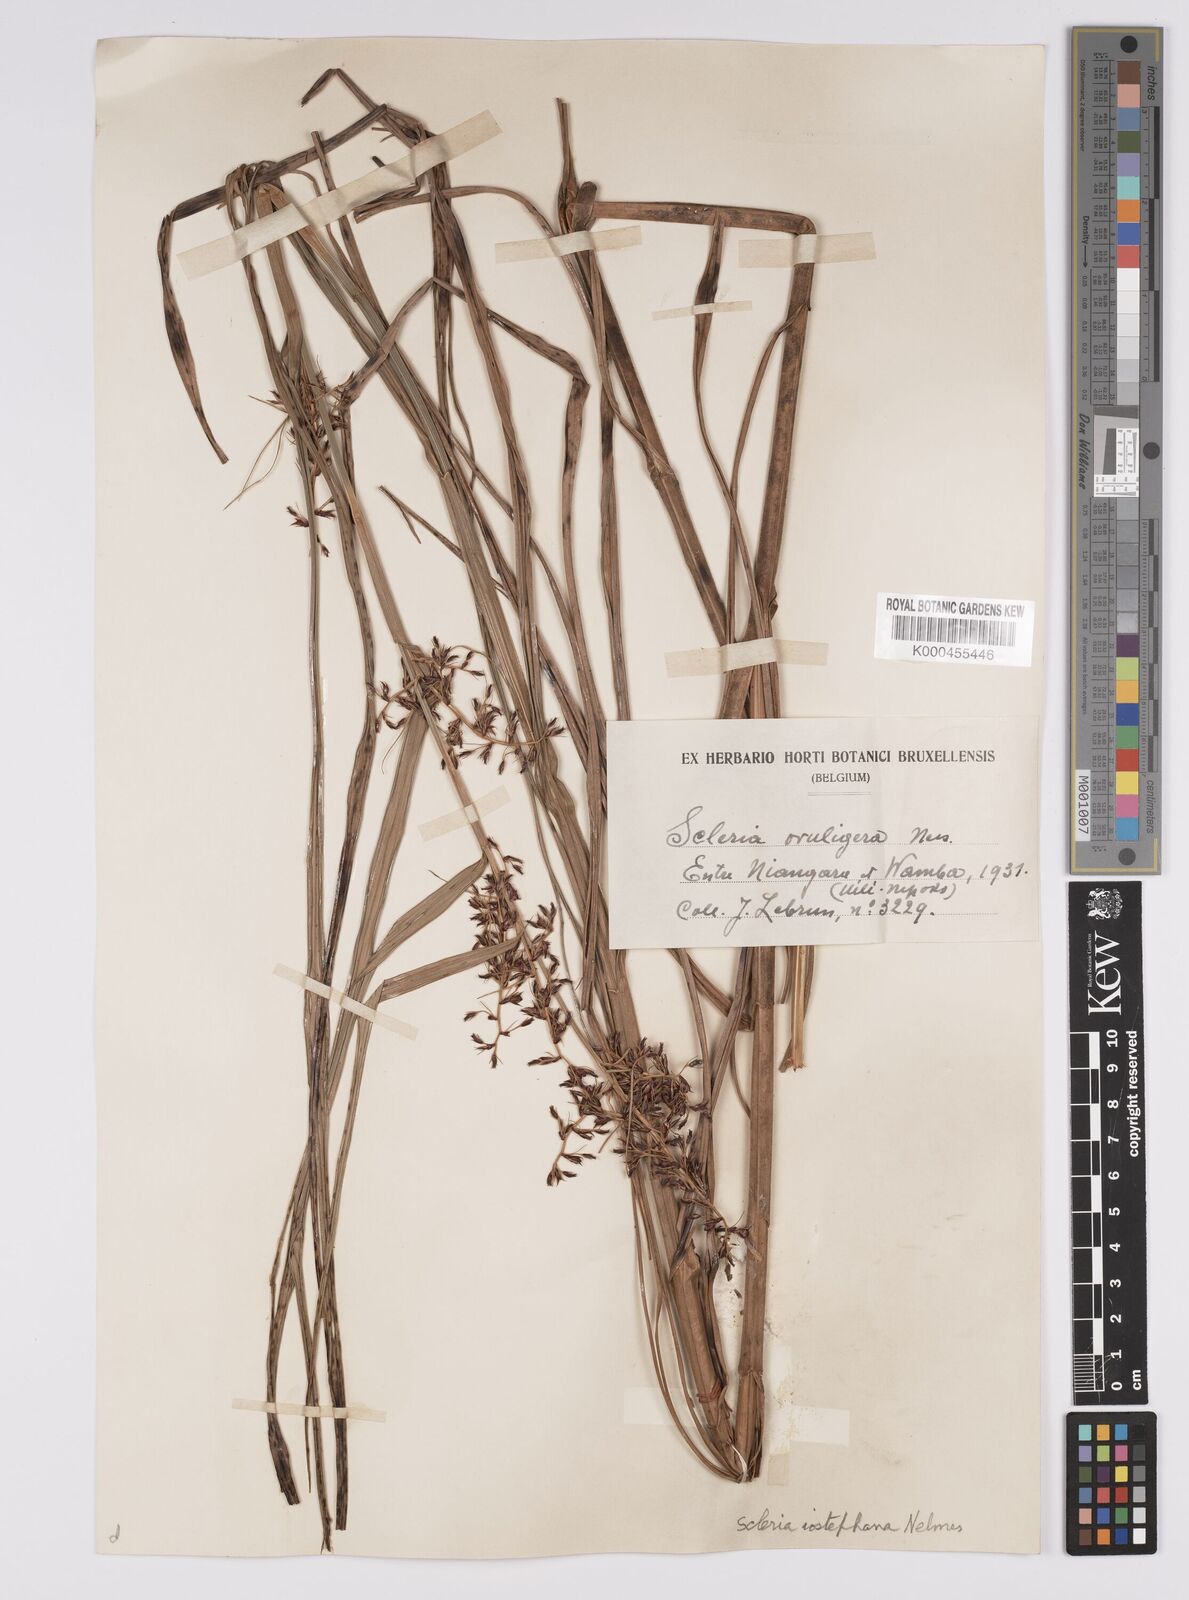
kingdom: Plantae
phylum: Tracheophyta
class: Liliopsida
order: Poales
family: Cyperaceae
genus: Scleria
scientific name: Scleria iostephana
